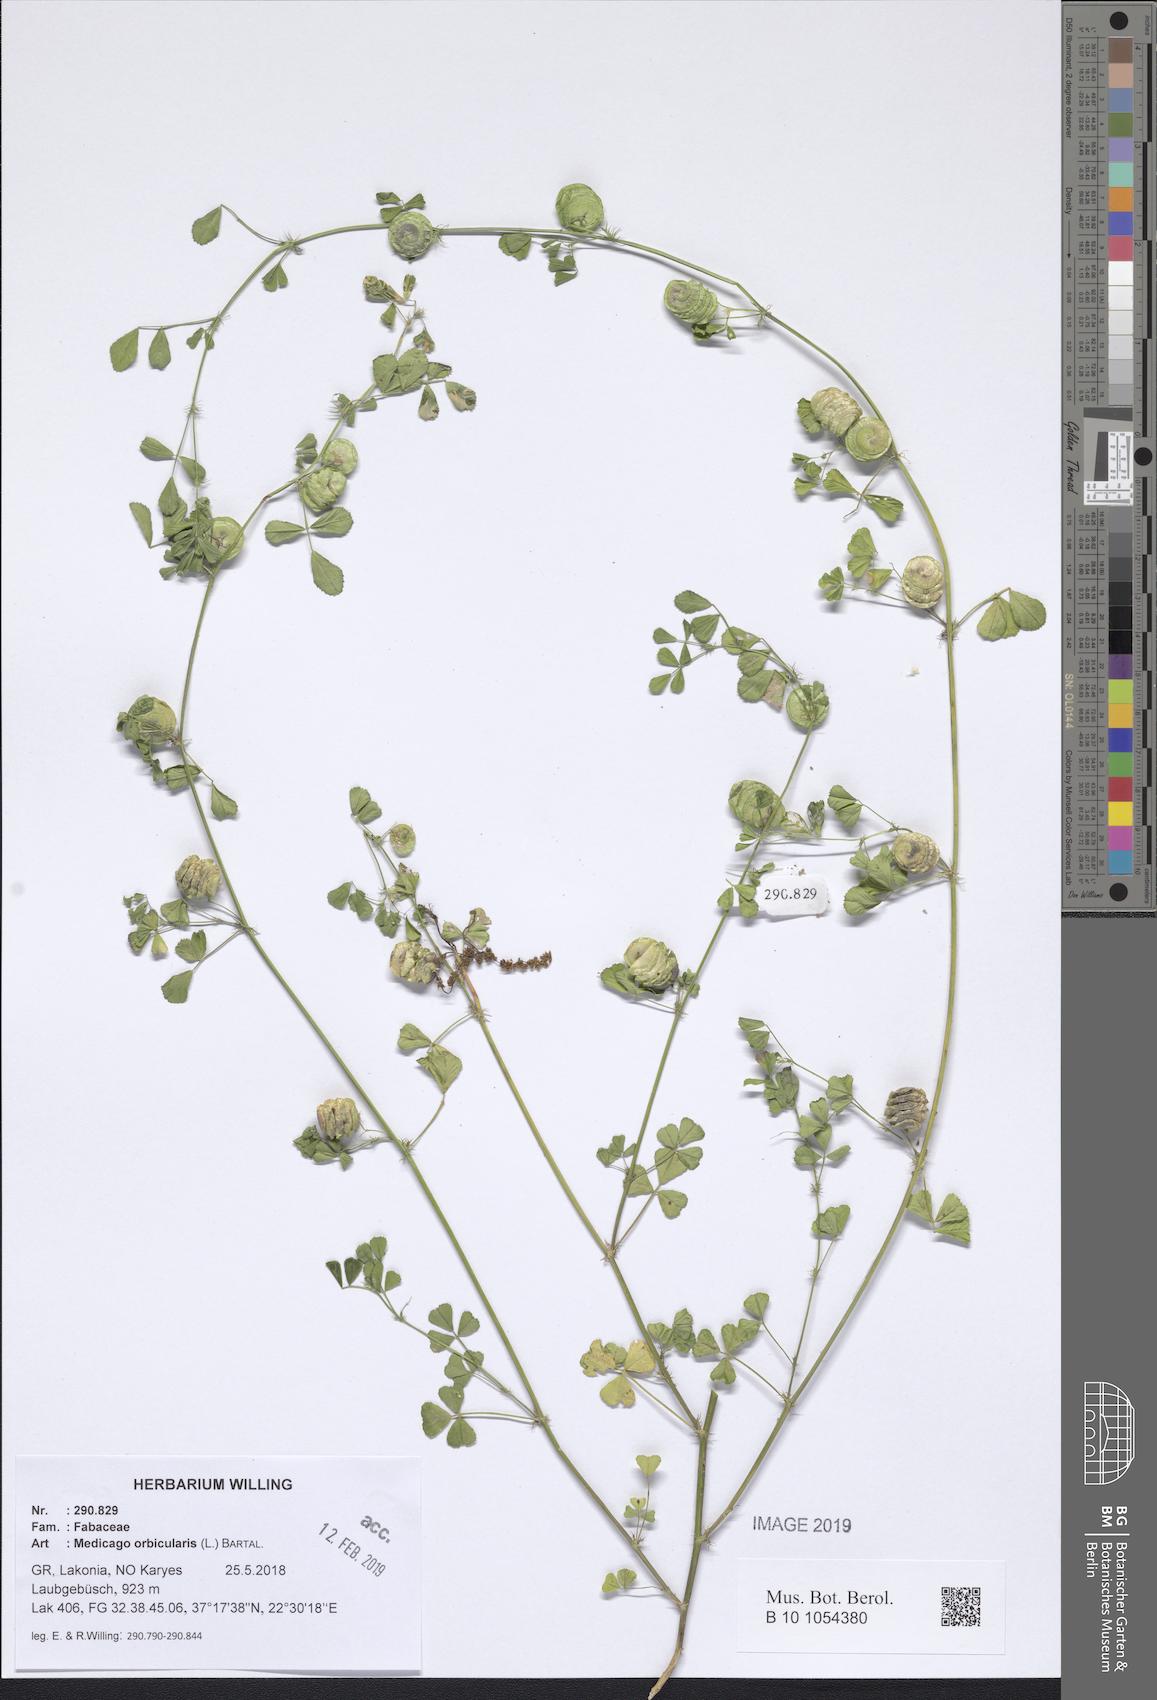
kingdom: Plantae
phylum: Tracheophyta
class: Magnoliopsida
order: Fabales
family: Fabaceae
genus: Medicago
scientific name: Medicago orbicularis
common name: Button medick
